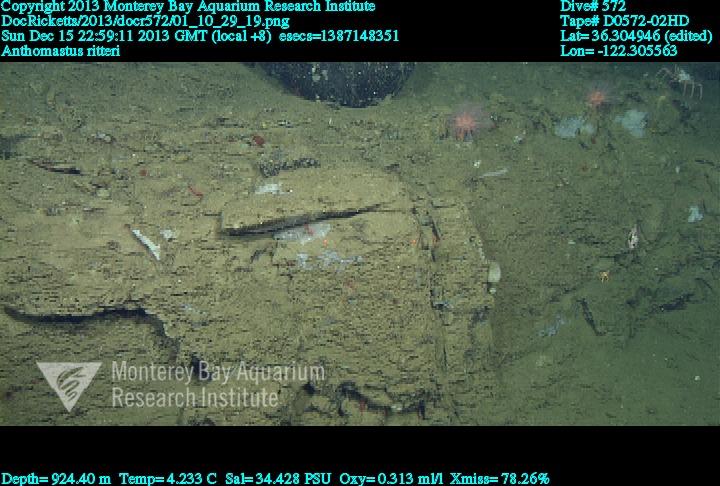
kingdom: Animalia
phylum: Cnidaria
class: Anthozoa
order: Scleralcyonacea
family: Coralliidae
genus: Heteropolypus
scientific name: Heteropolypus ritteri
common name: Ritter's soft coral
